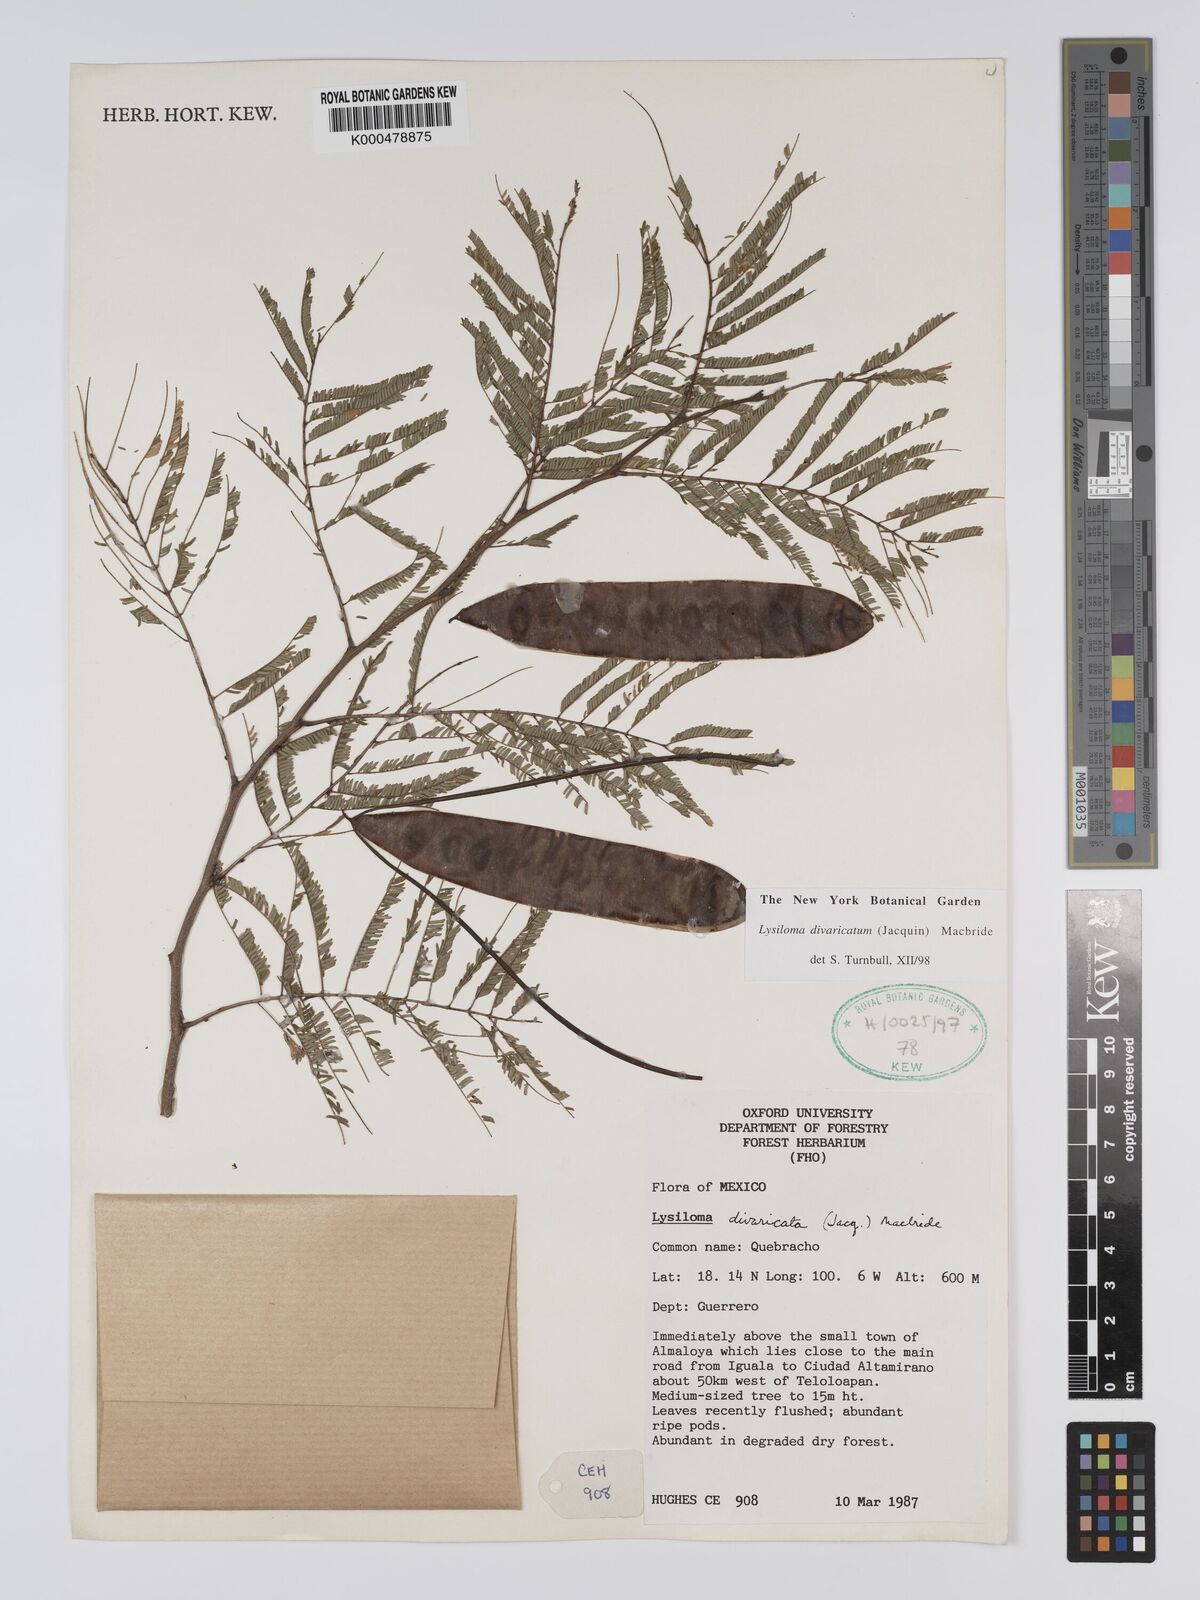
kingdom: Plantae
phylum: Tracheophyta
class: Magnoliopsida
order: Fabales
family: Fabaceae
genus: Lysiloma
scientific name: Lysiloma divaricatum
